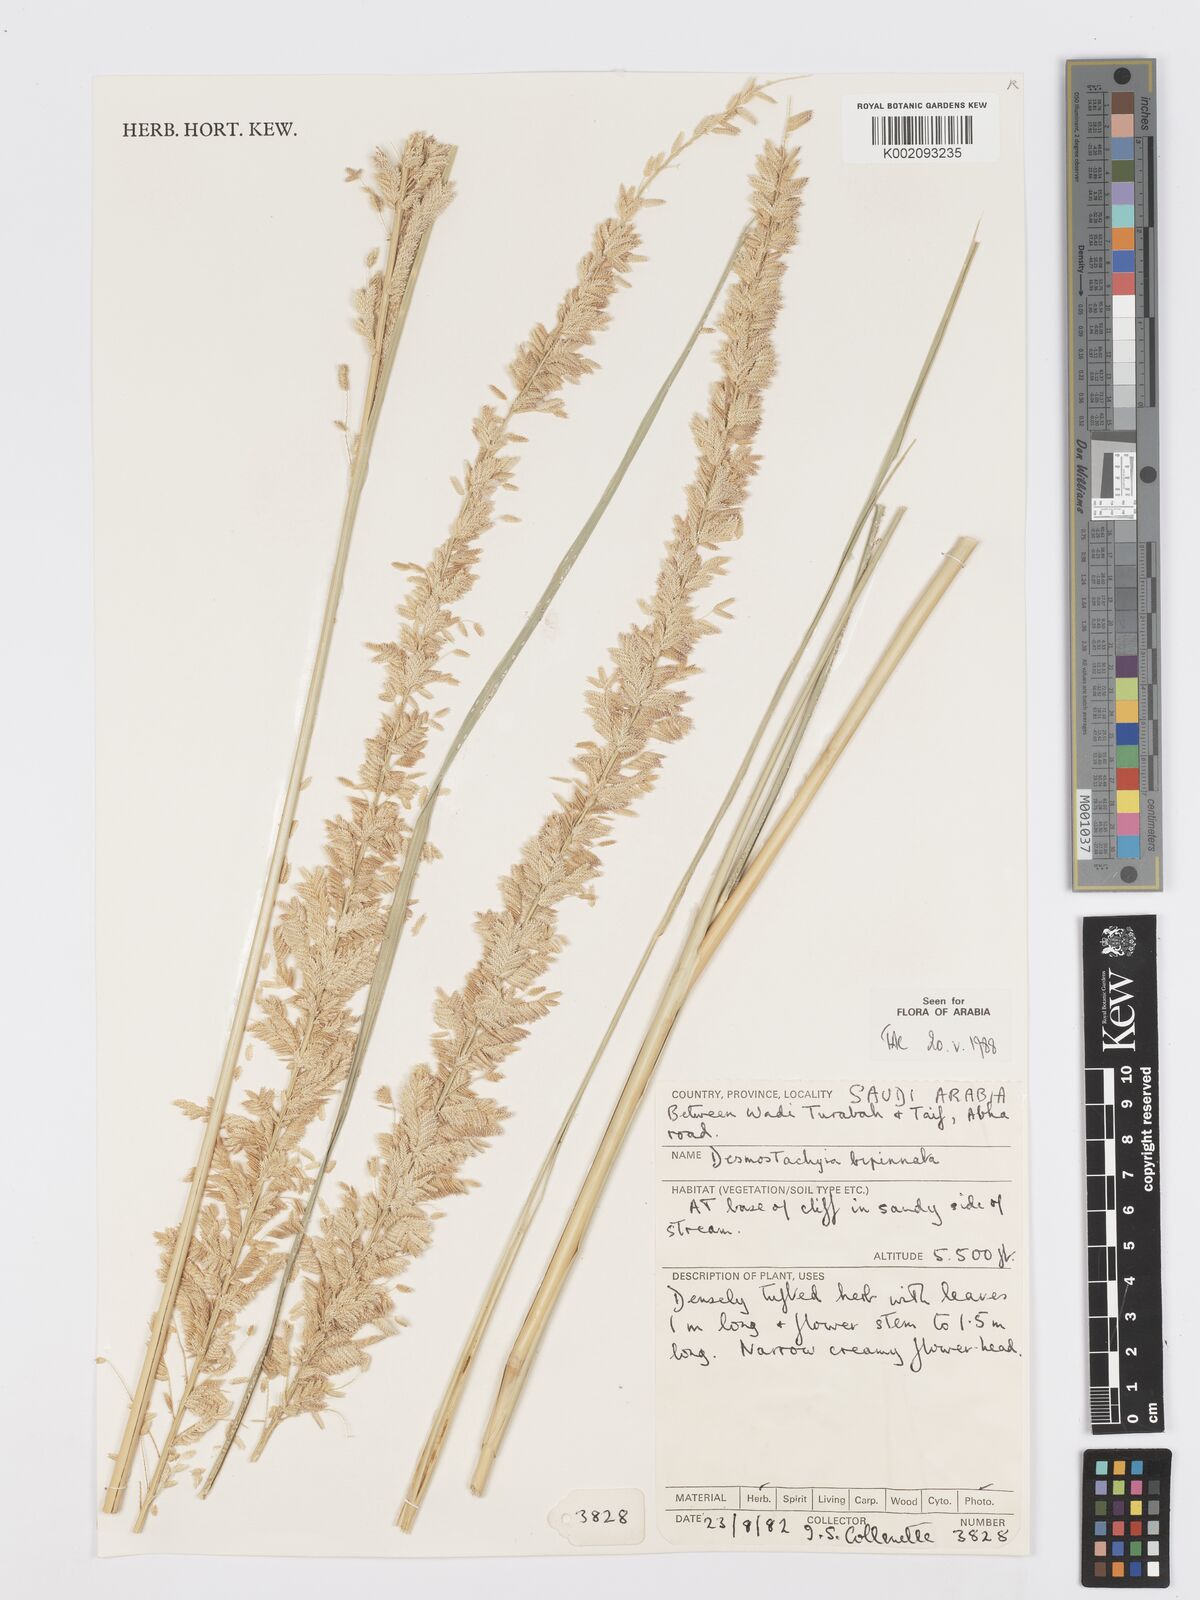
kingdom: Plantae
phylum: Tracheophyta
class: Liliopsida
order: Poales
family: Poaceae
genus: Desmostachya
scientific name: Desmostachya bipinnata
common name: Crowfoot grass
